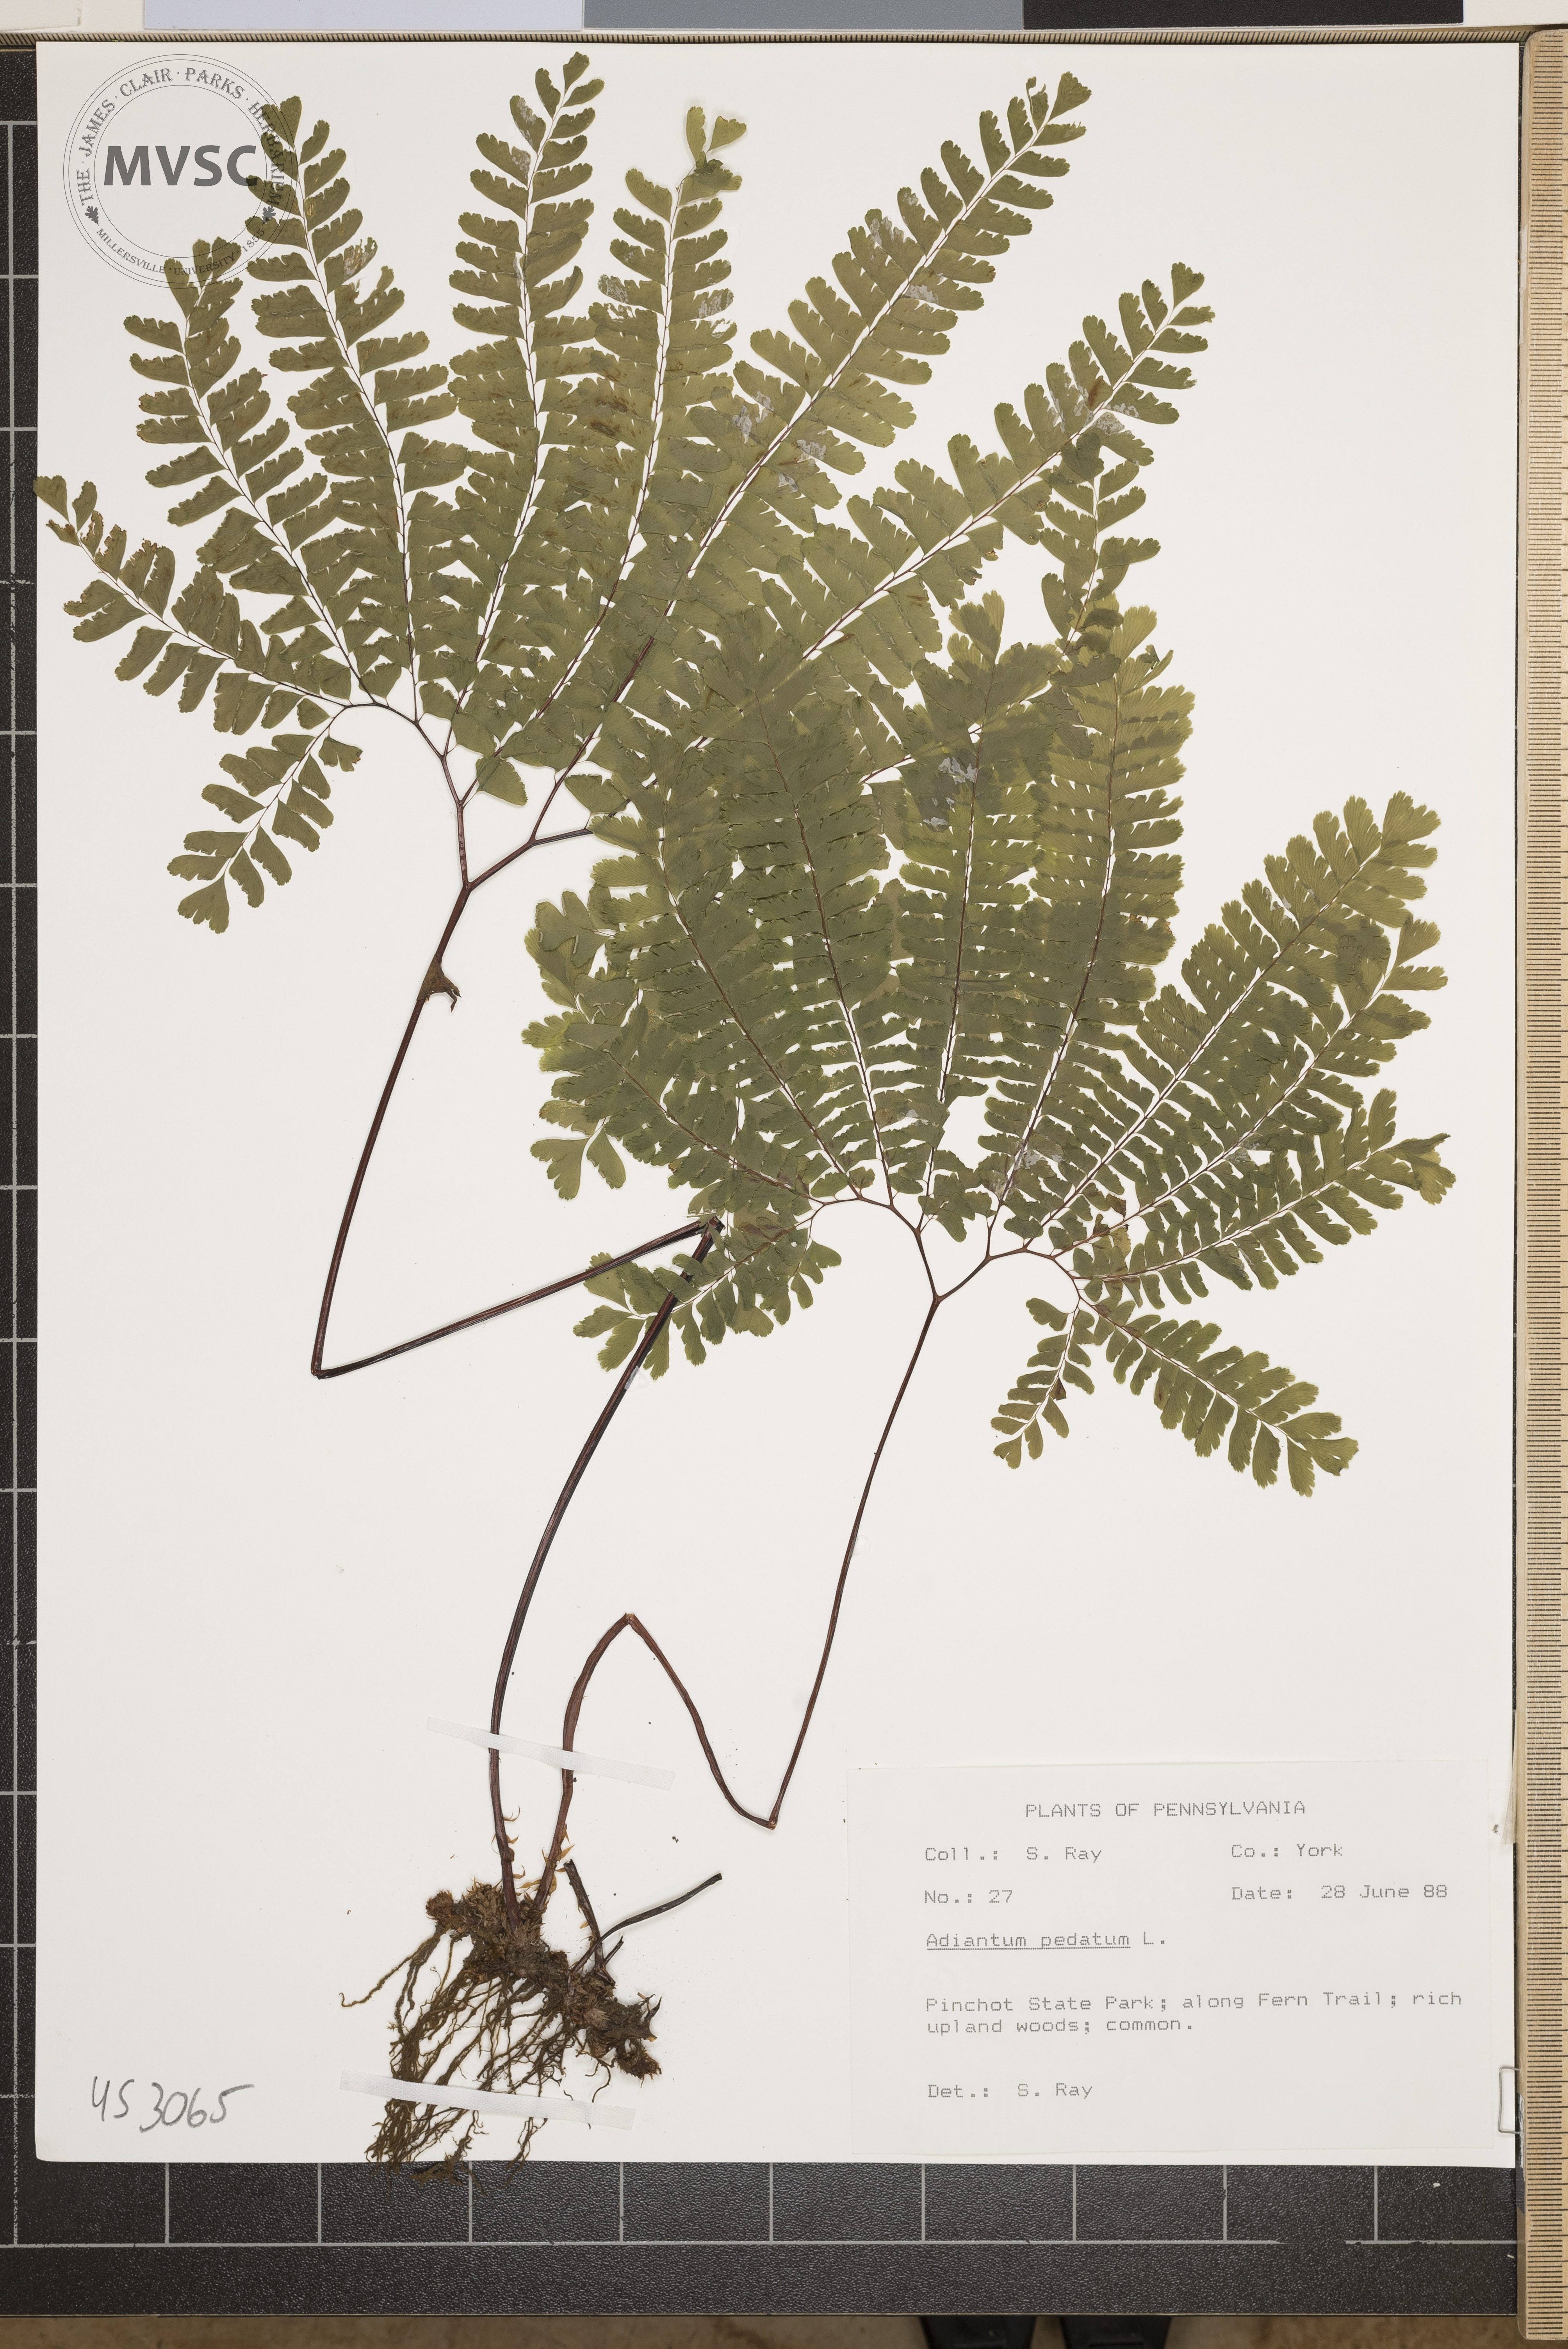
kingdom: Plantae
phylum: Tracheophyta
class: Polypodiopsida
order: Polypodiales
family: Pteridaceae
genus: Adiantum
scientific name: Adiantum pedatum
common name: Five-finger fern
